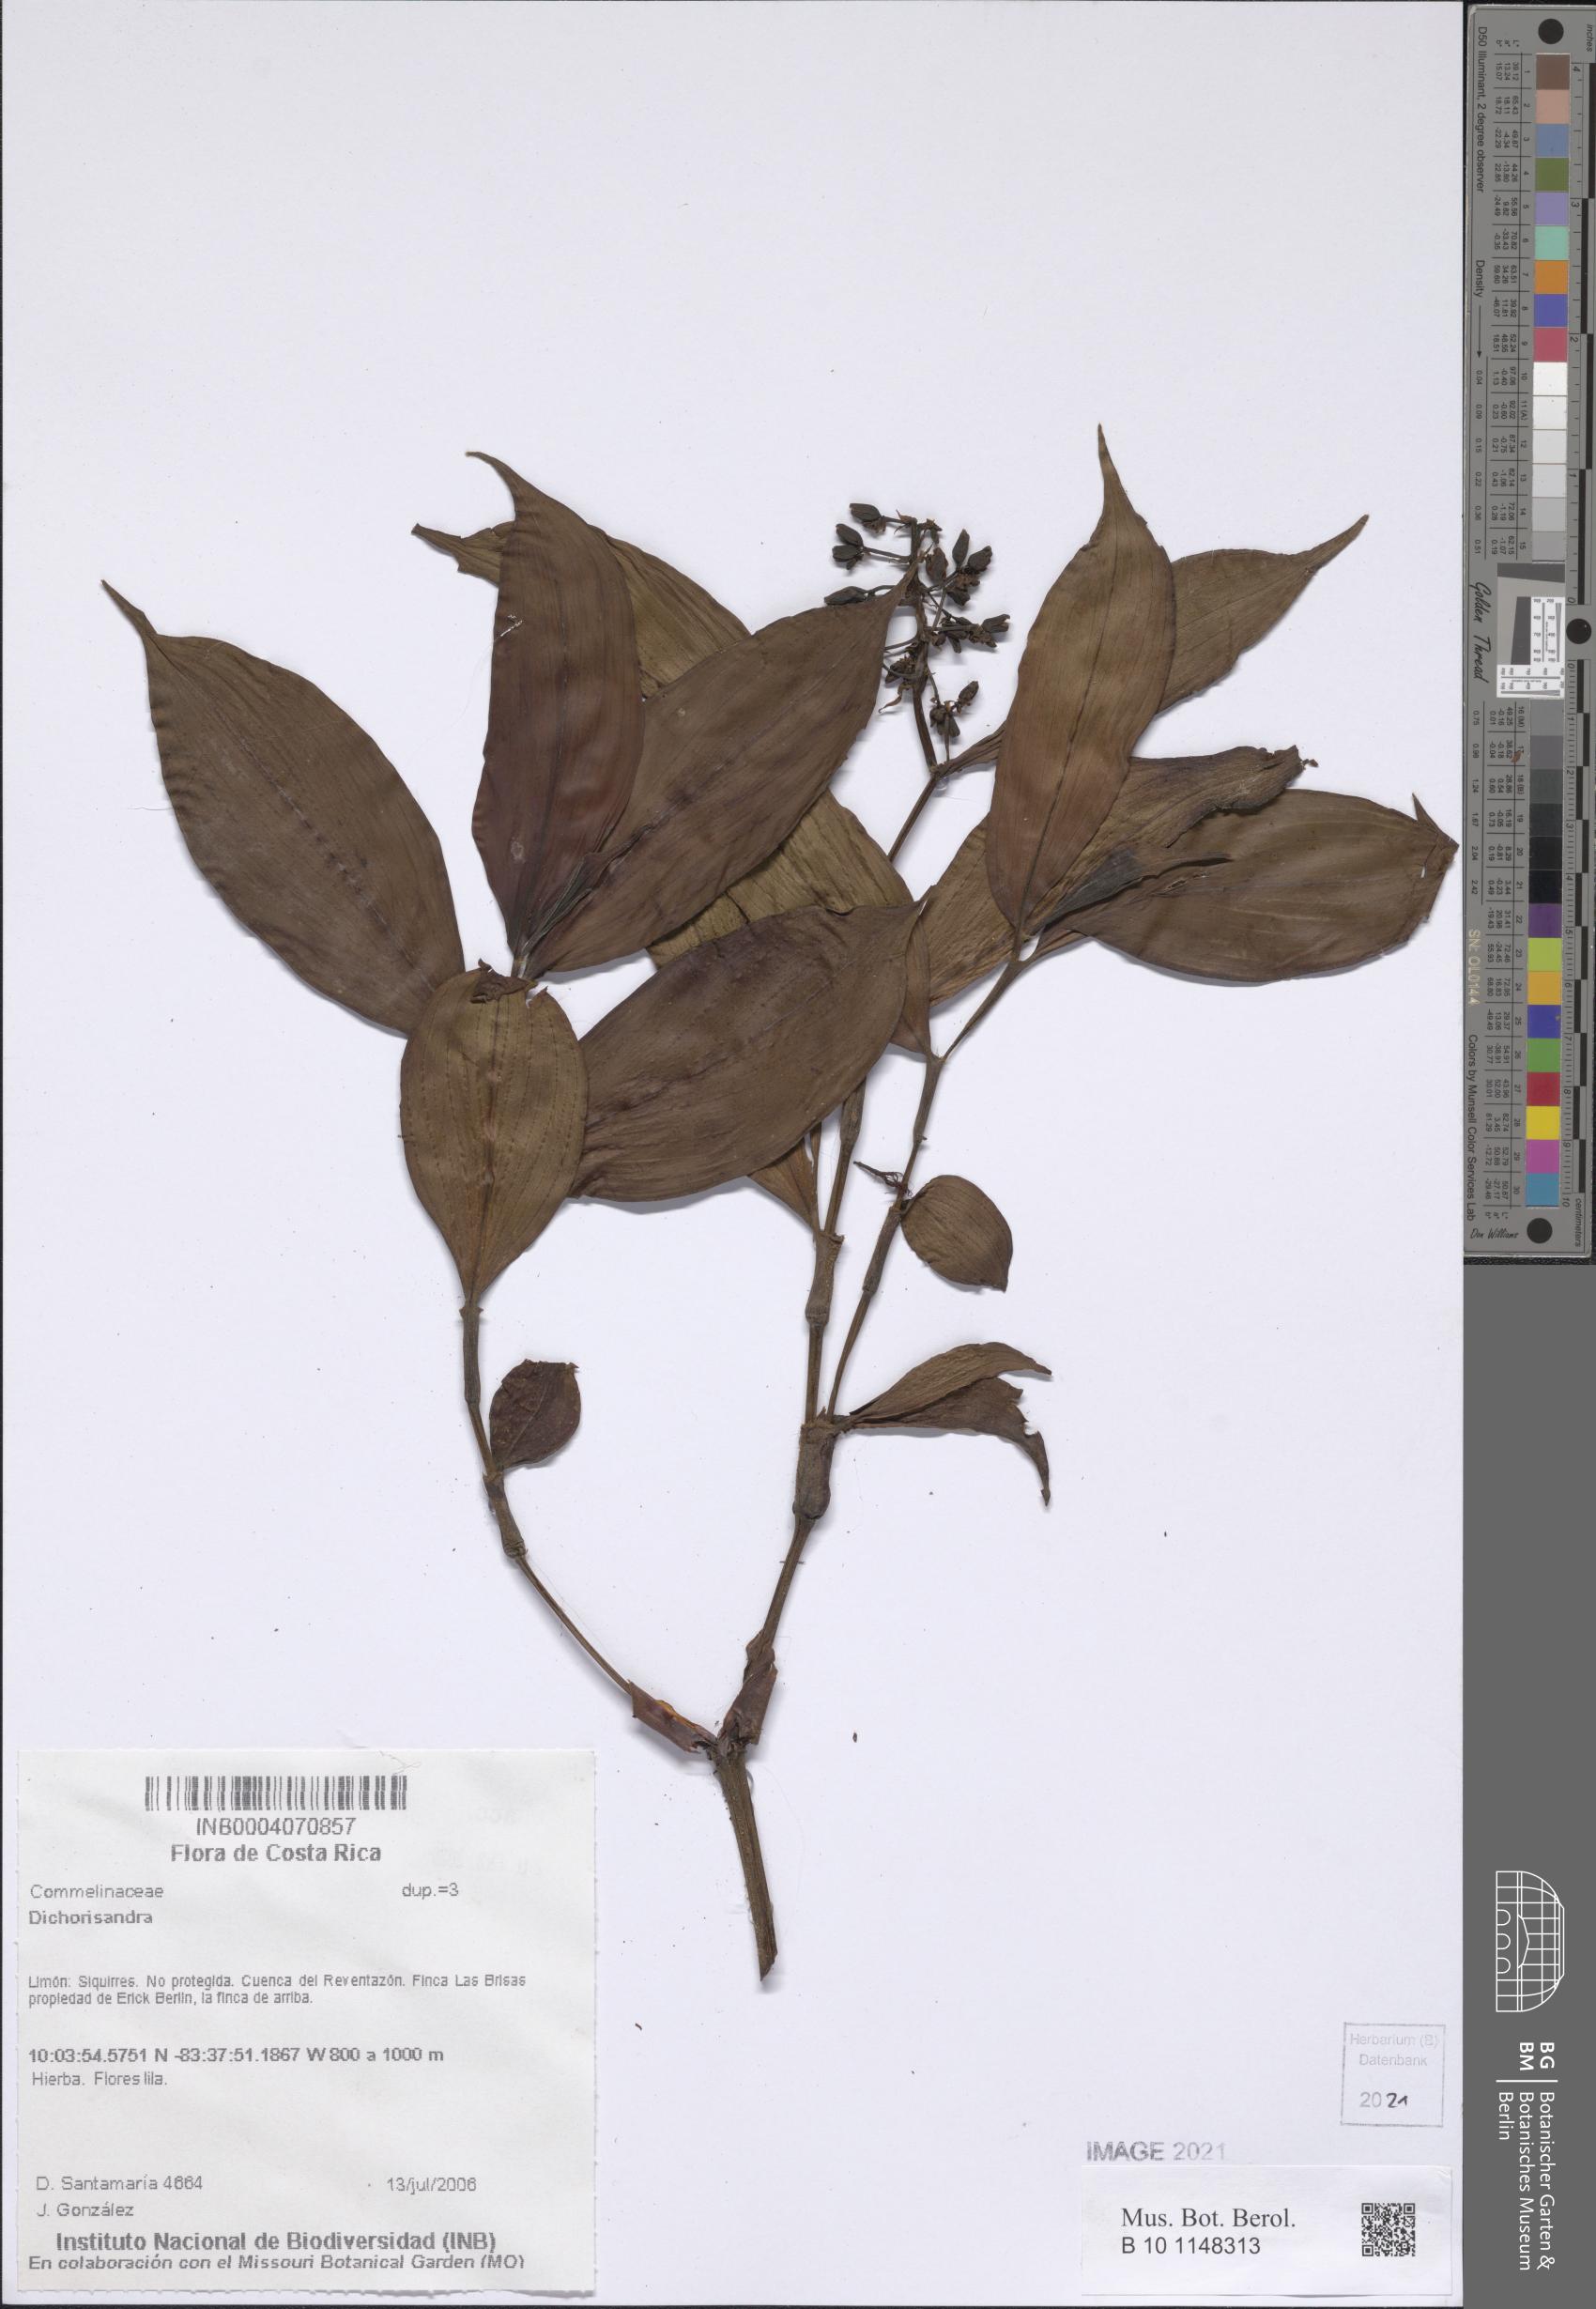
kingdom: Plantae
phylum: Tracheophyta
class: Liliopsida
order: Commelinales
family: Commelinaceae
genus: Dichorisandra
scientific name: Dichorisandra
